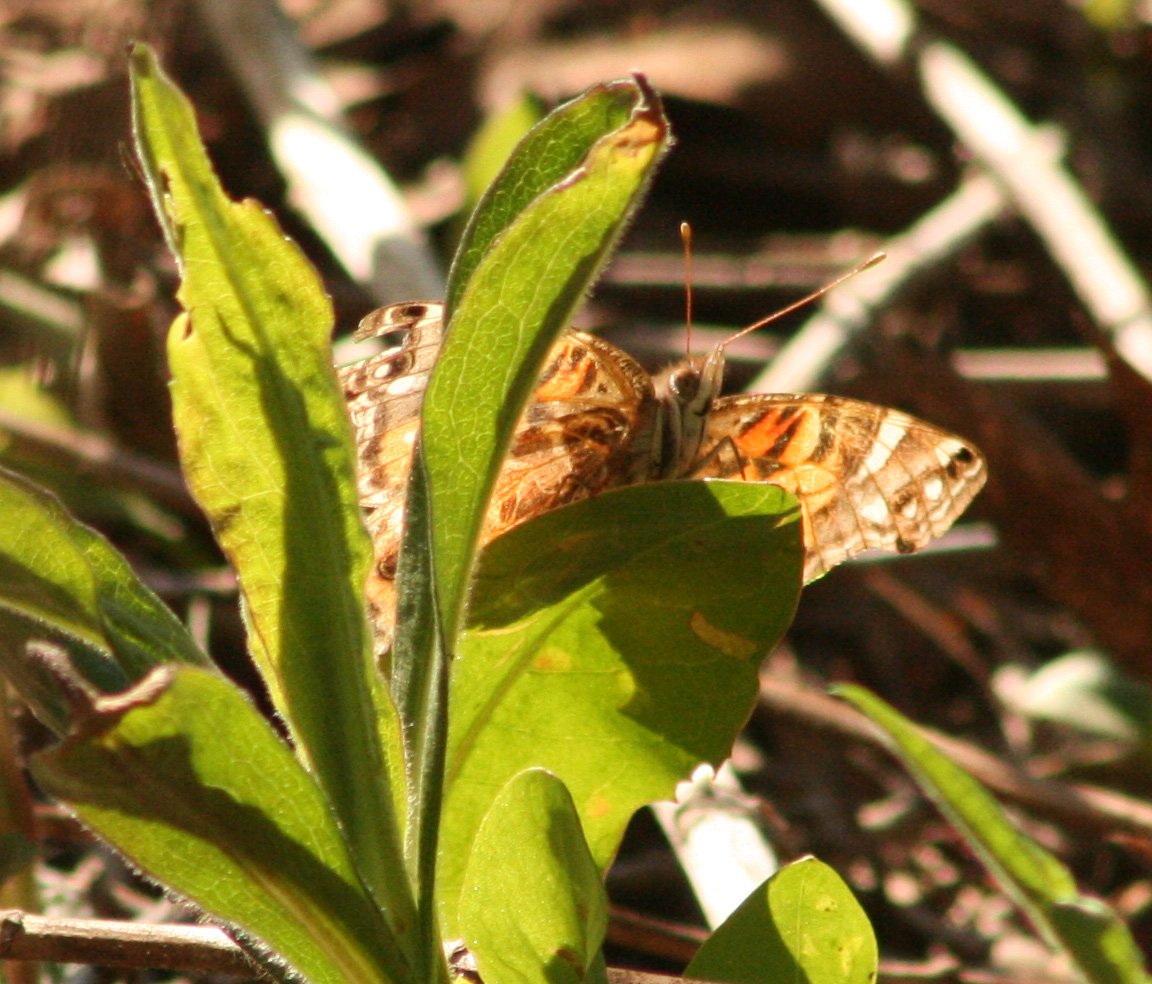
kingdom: Animalia
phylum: Arthropoda
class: Insecta
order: Lepidoptera
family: Nymphalidae
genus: Vanessa
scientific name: Vanessa virginiensis
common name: American Lady
